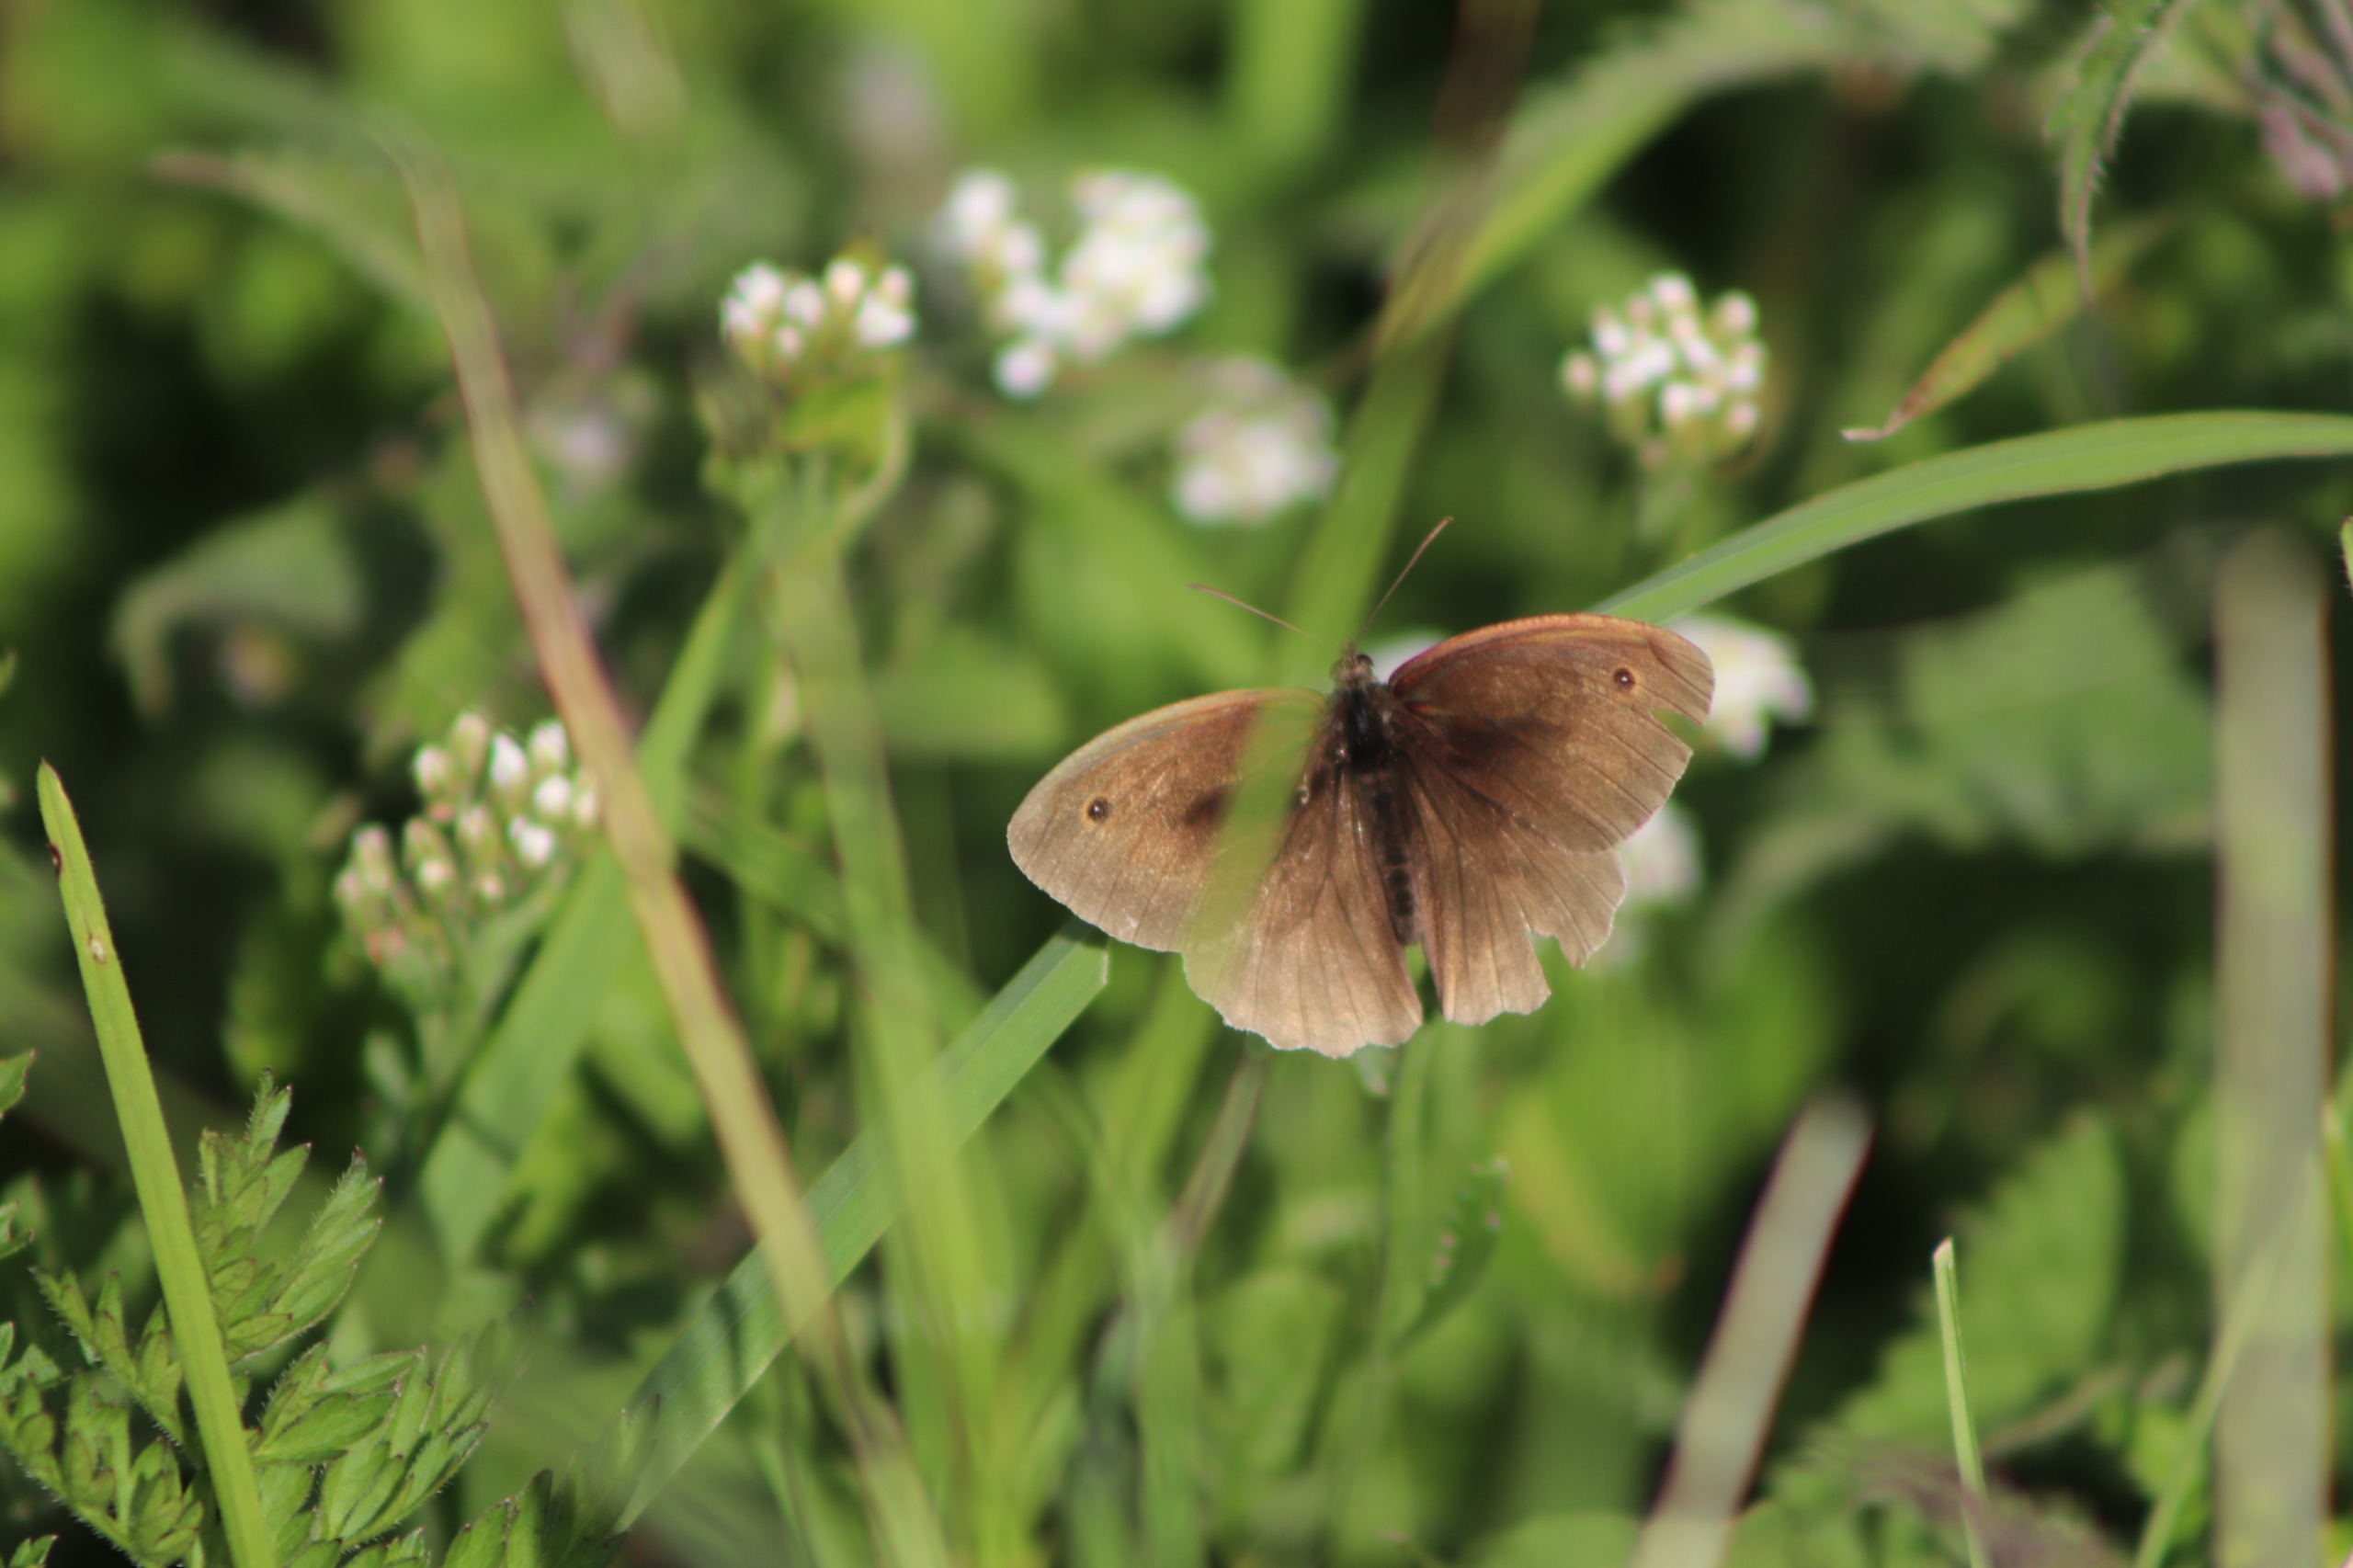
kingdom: Animalia
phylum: Arthropoda
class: Insecta
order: Lepidoptera
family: Nymphalidae
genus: Maniola
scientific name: Maniola jurtina
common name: Græsrandøje
